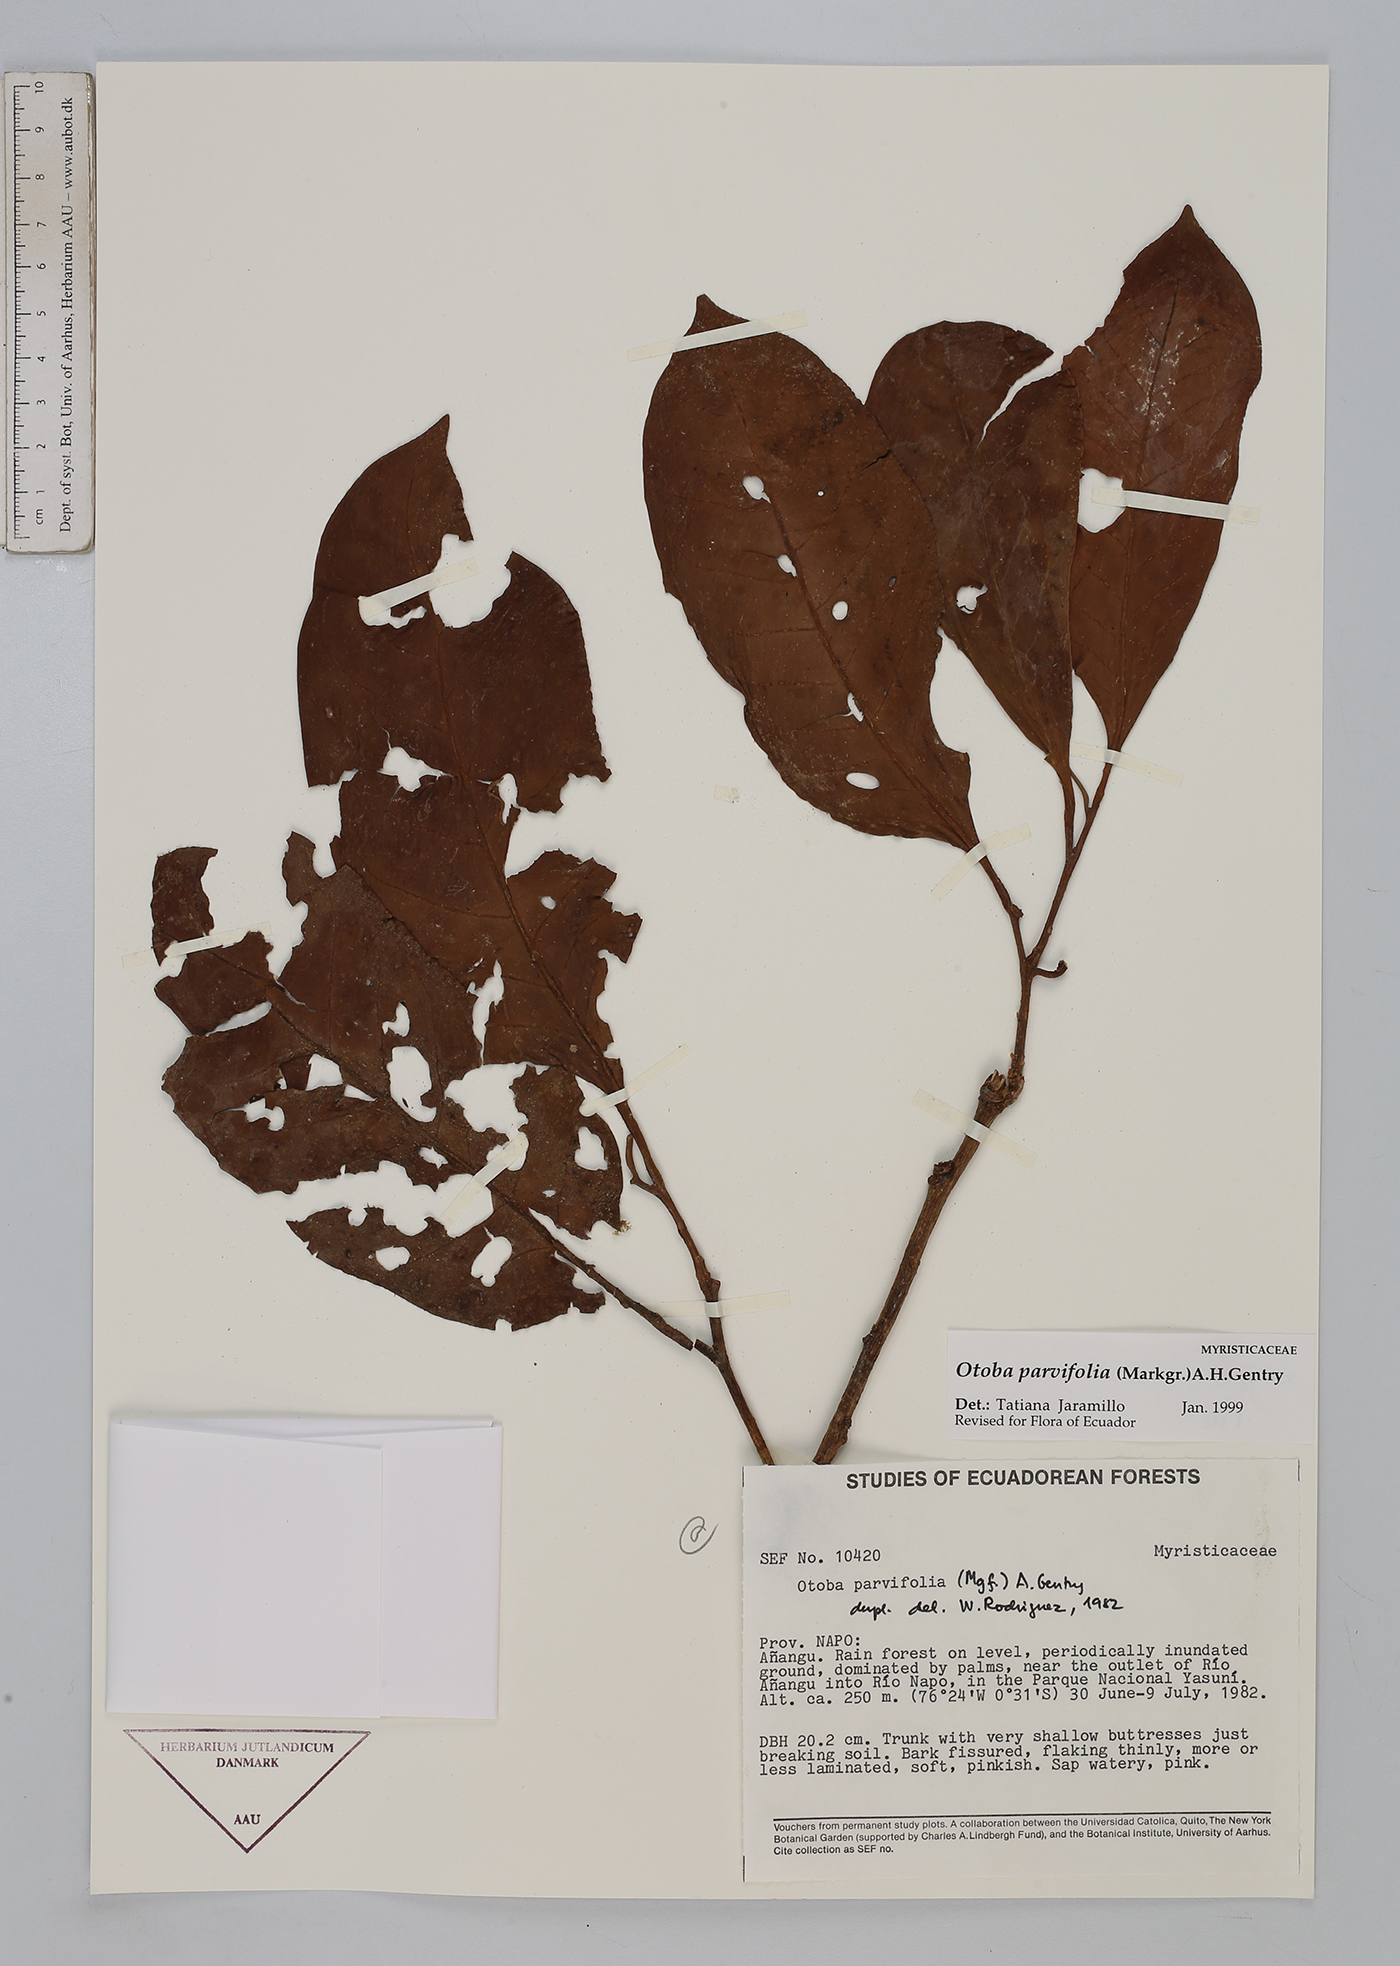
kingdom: Plantae
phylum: Tracheophyta
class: Magnoliopsida
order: Magnoliales
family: Myristicaceae
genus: Otoba
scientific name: Otoba parvifolia
